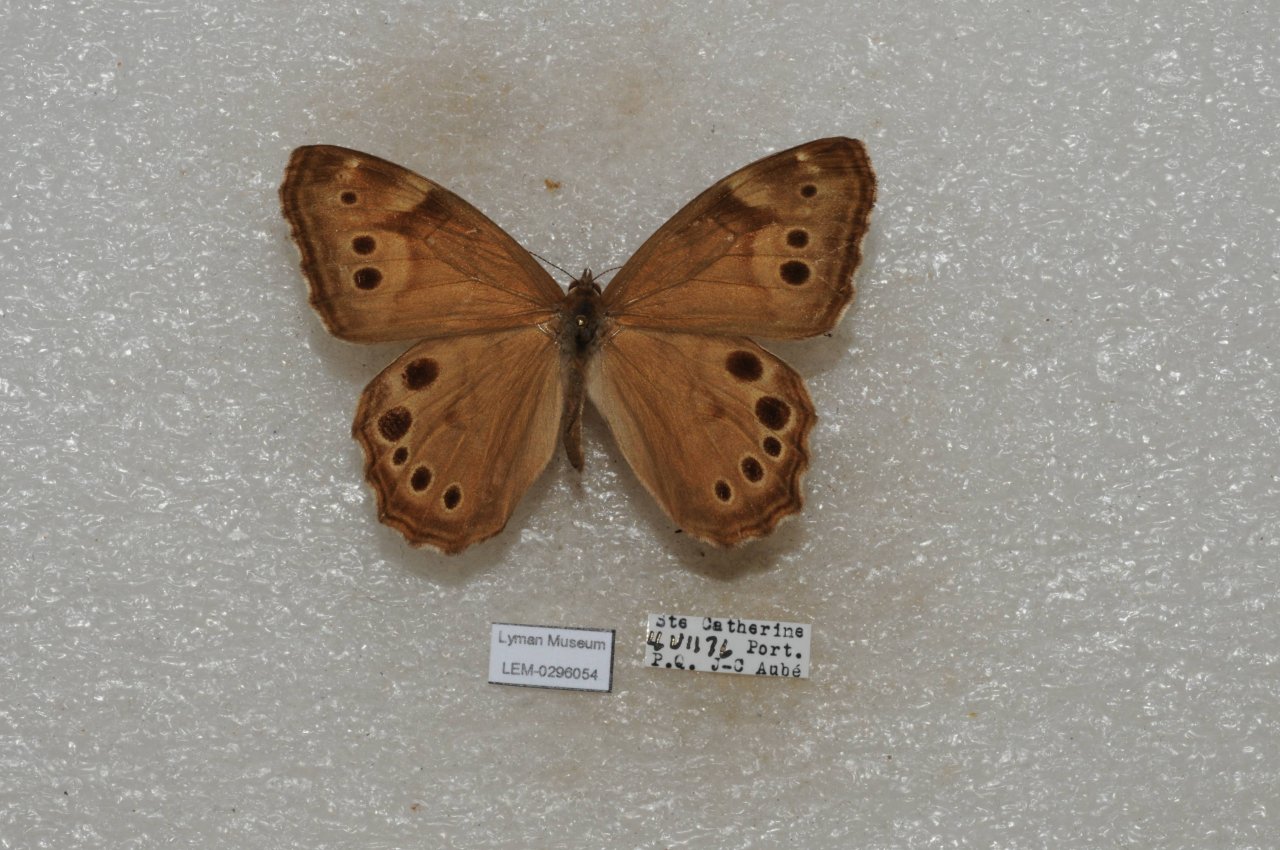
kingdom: Animalia
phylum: Arthropoda
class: Insecta
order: Lepidoptera
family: Nymphalidae
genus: Lethe
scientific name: Lethe anthedon
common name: Northern Pearly-Eye
